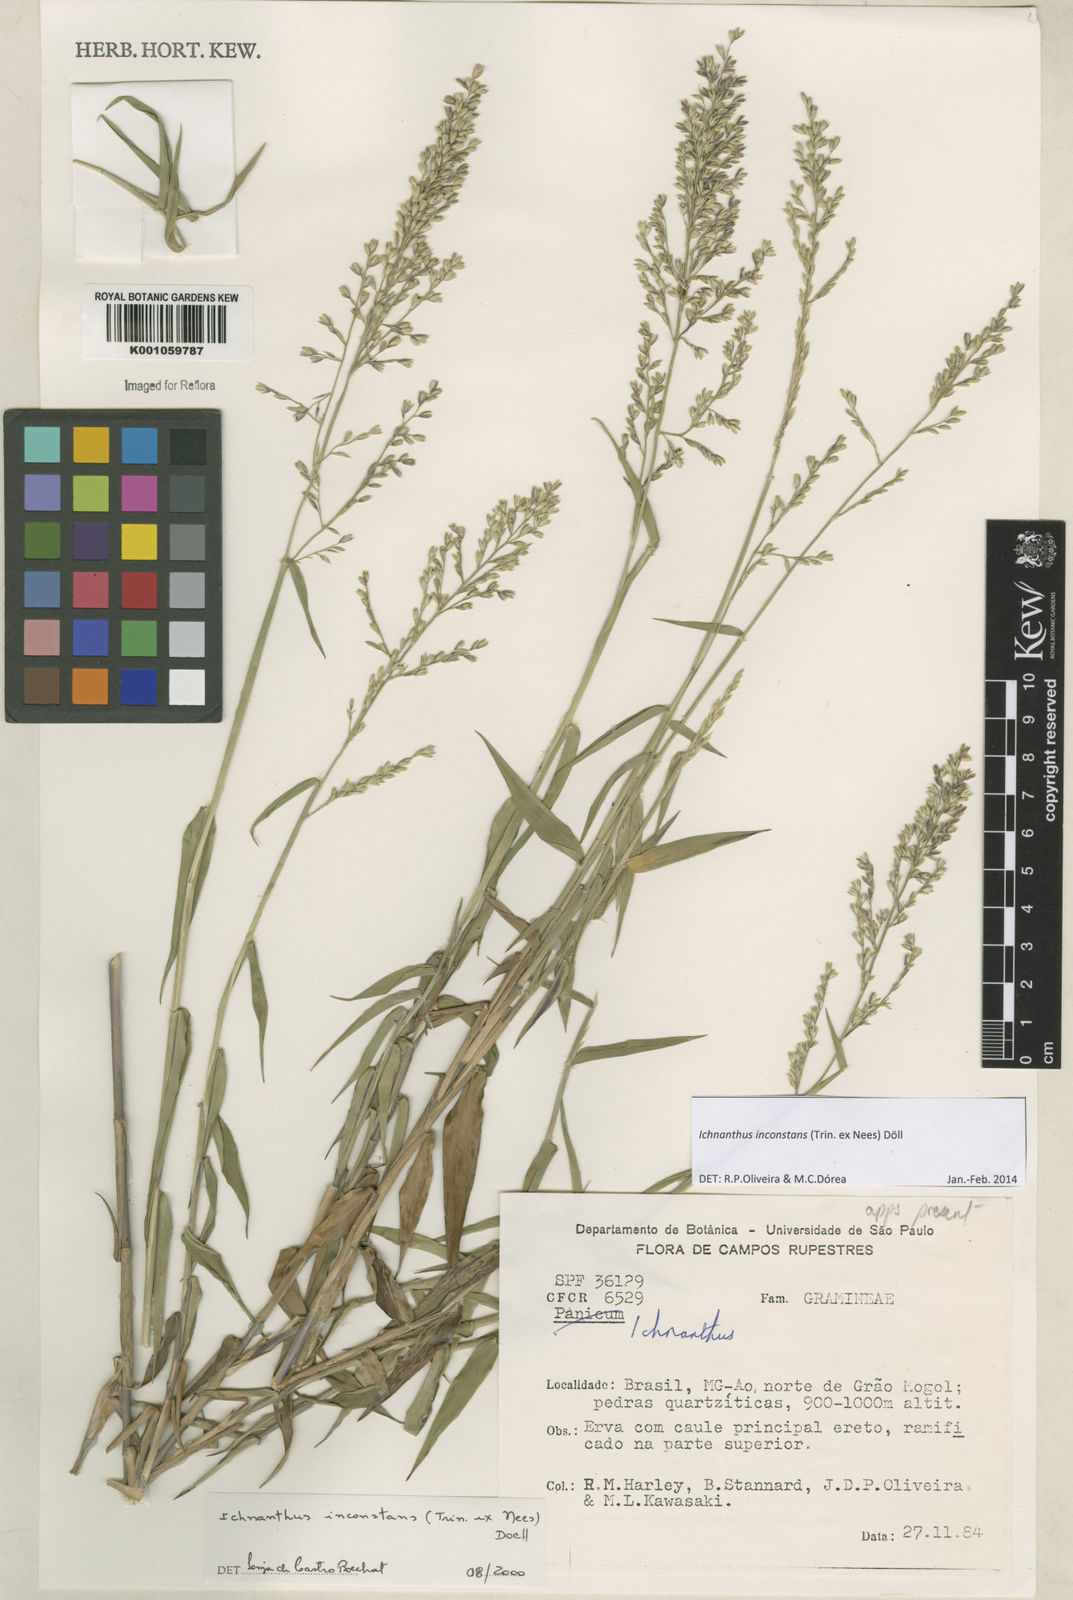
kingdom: Plantae
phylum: Tracheophyta
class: Liliopsida
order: Poales
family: Poaceae
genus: Ichnanthus
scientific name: Ichnanthus
